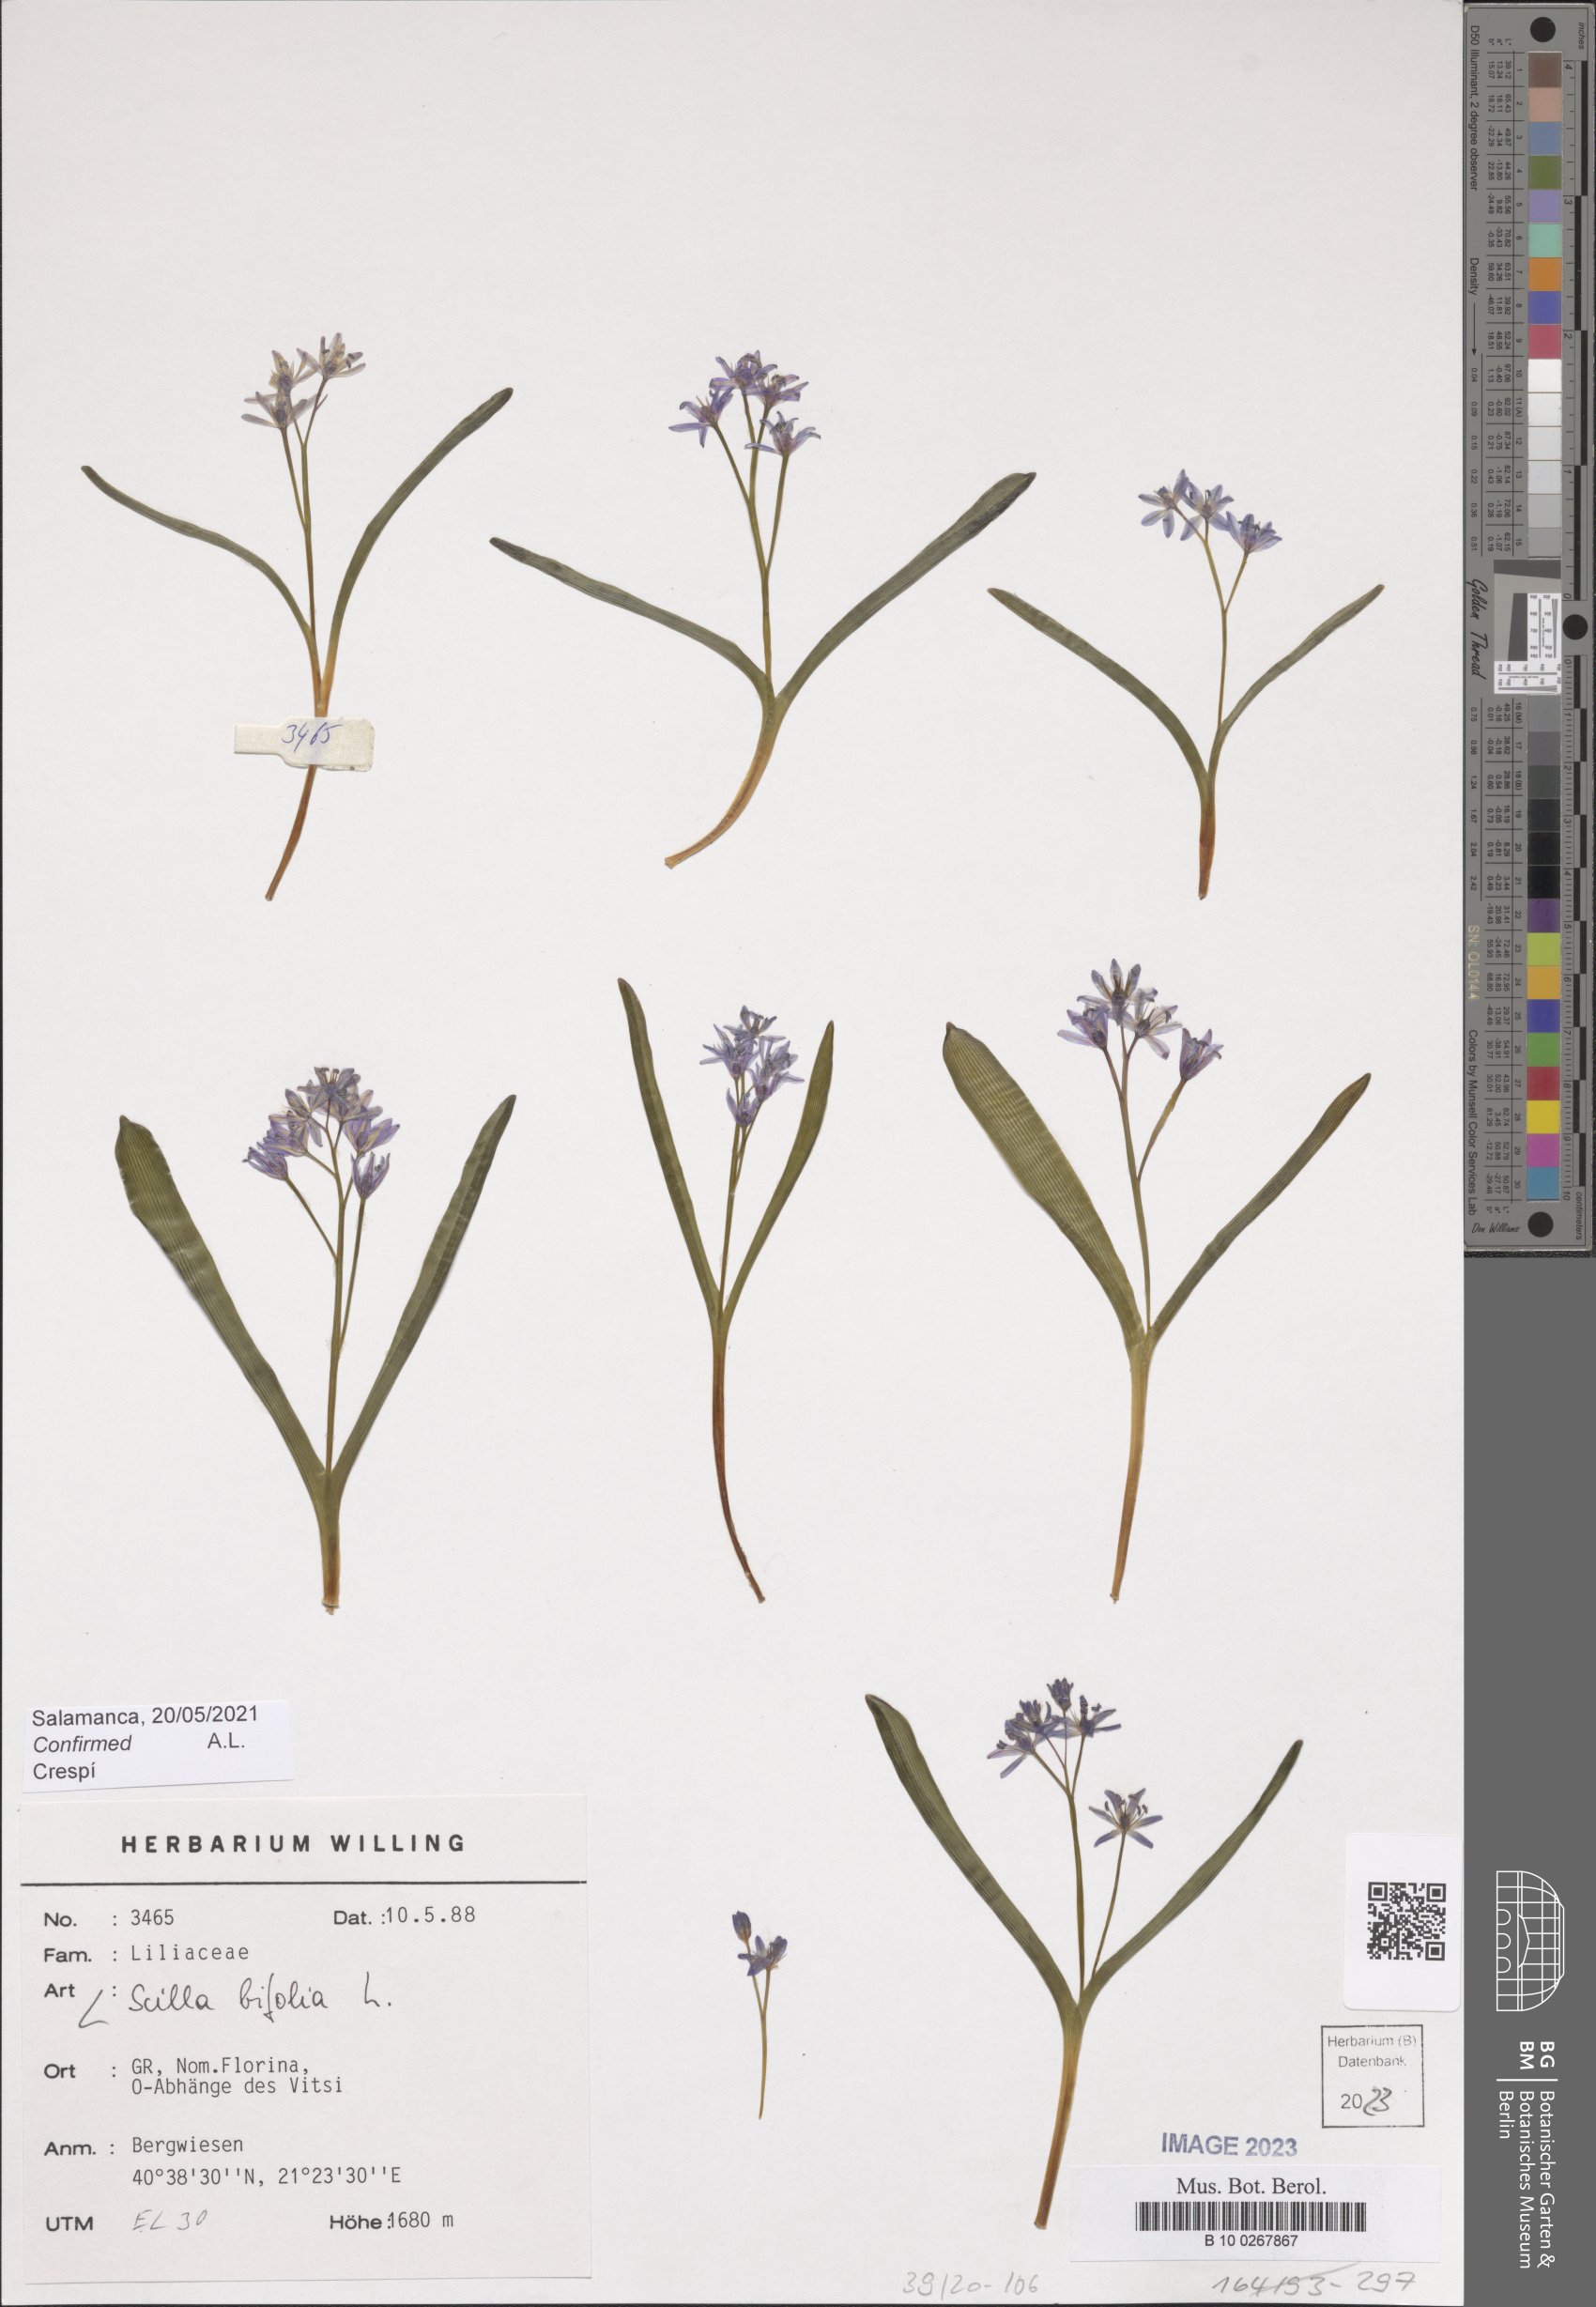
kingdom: Plantae
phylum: Tracheophyta
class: Liliopsida
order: Asparagales
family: Asparagaceae
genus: Scilla
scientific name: Scilla bifolia
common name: Alpine squill
